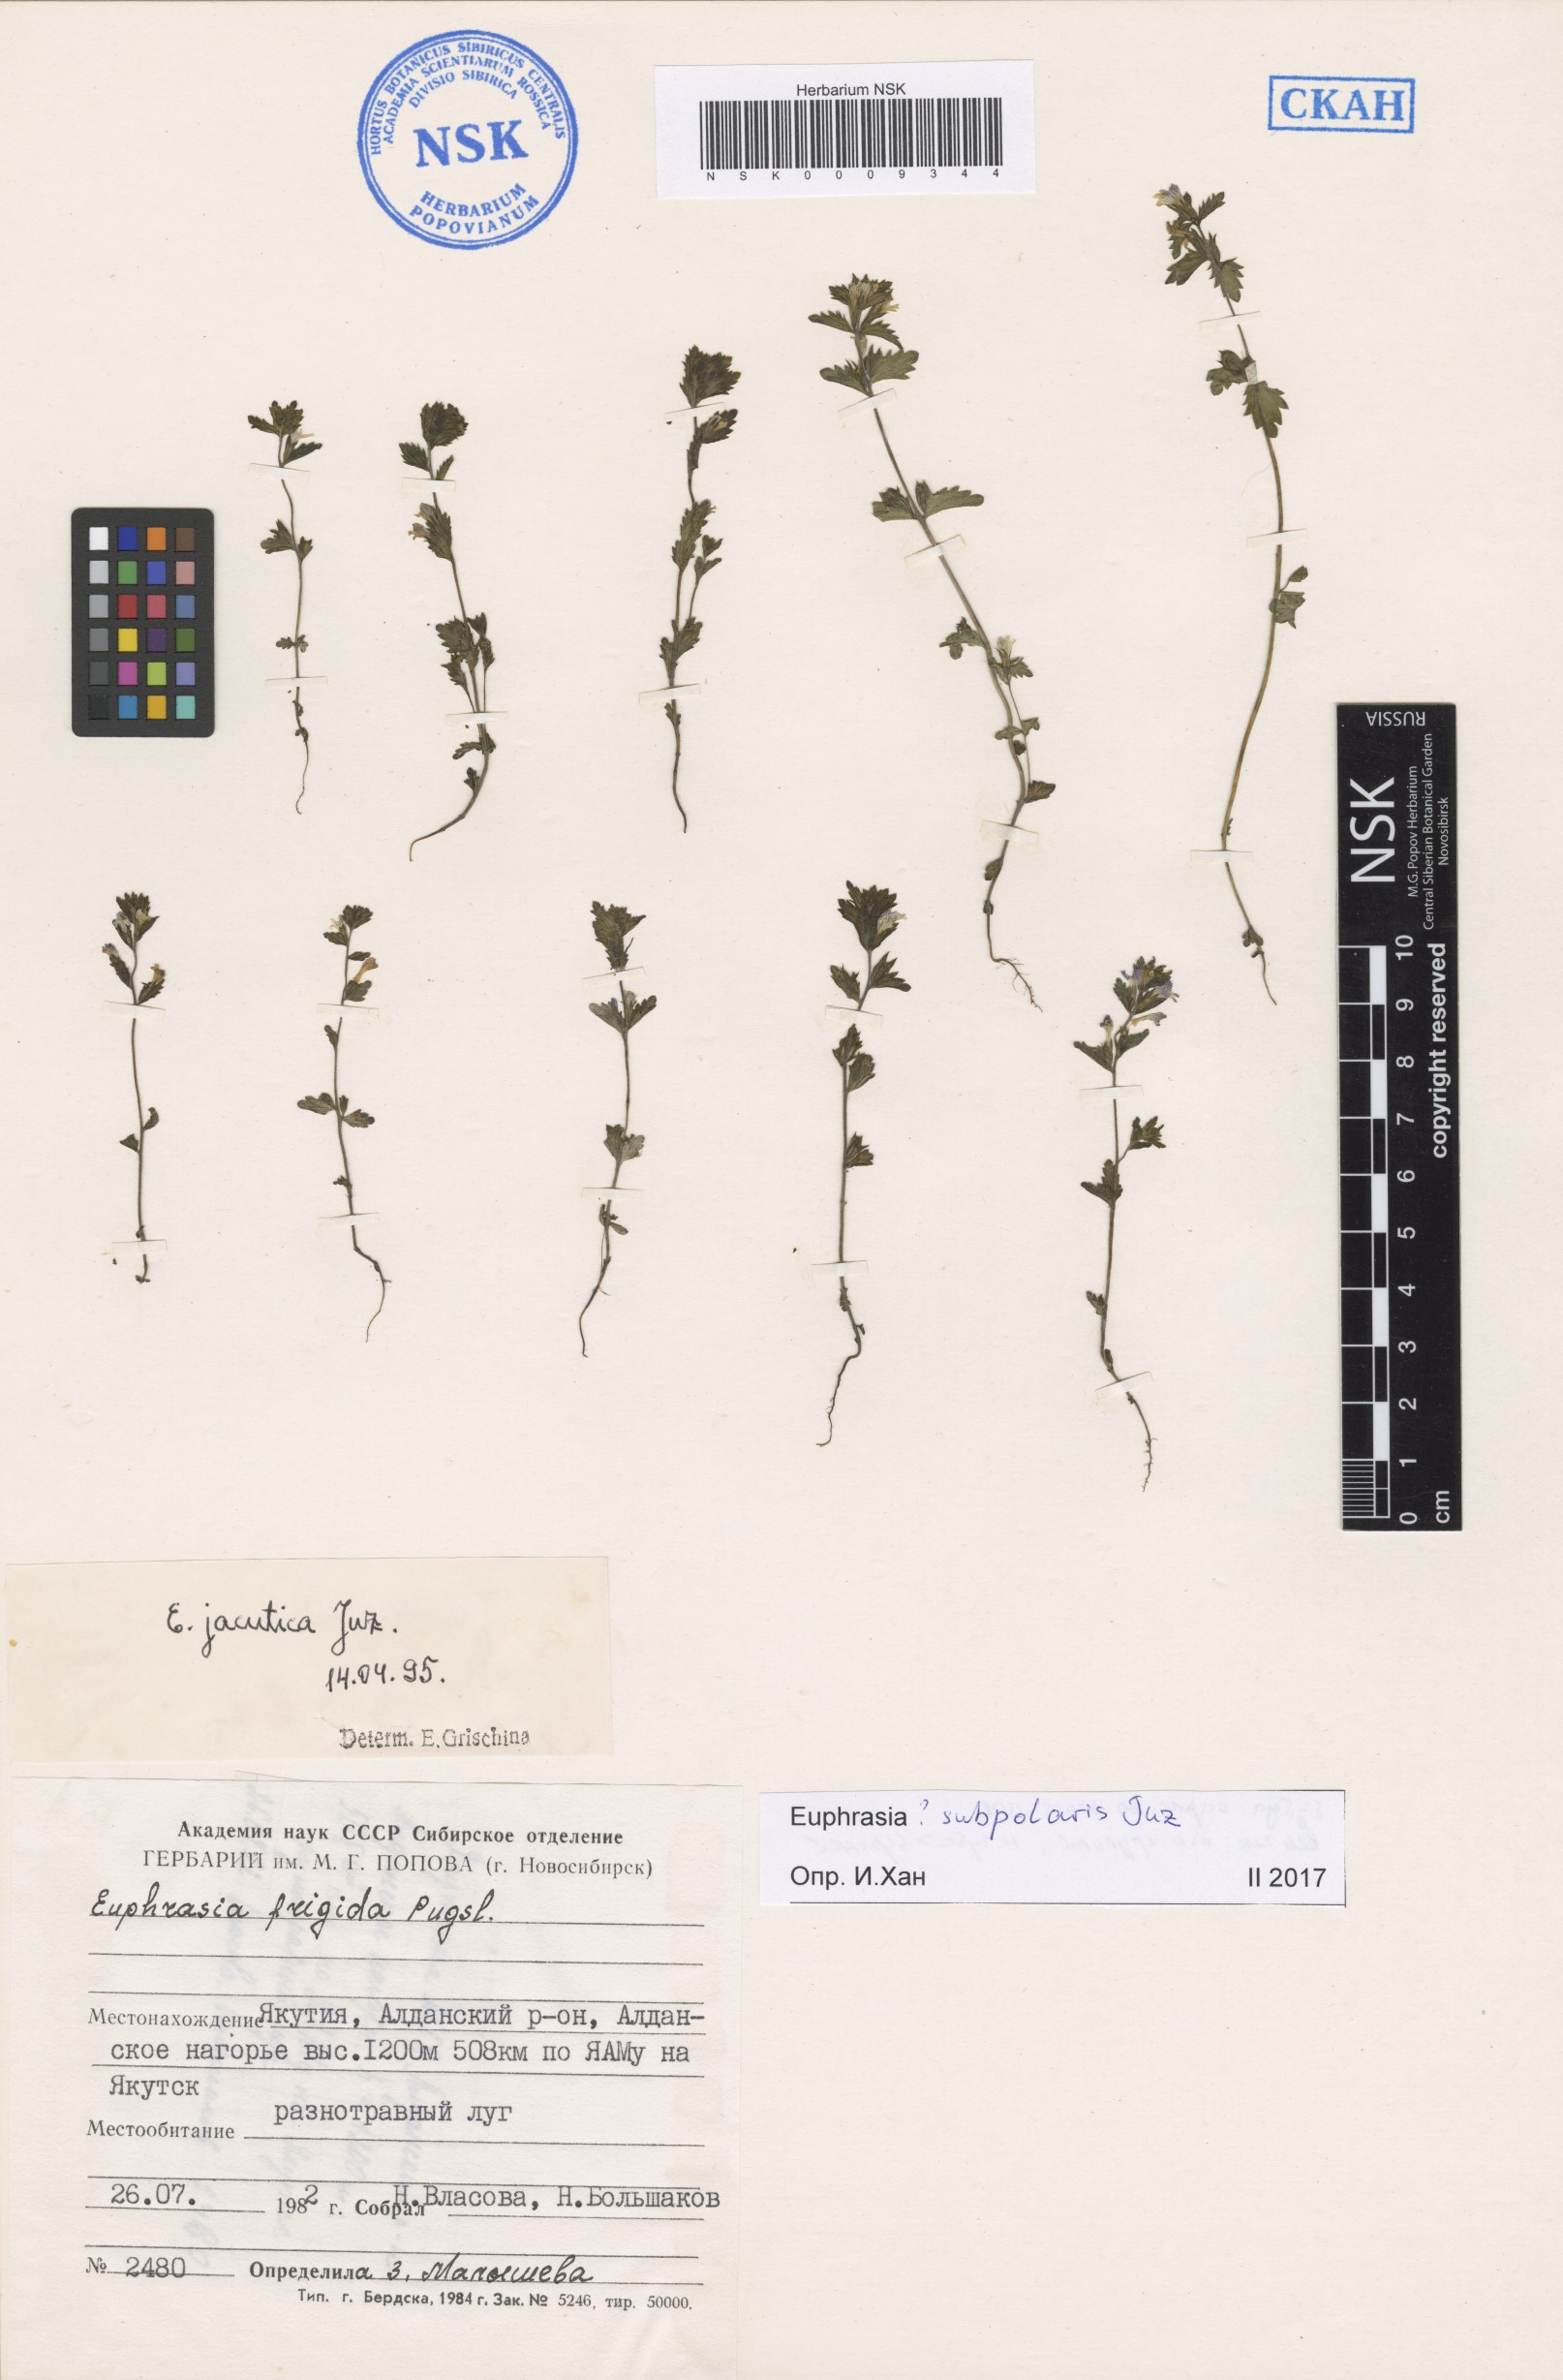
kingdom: Plantae
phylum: Tracheophyta
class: Magnoliopsida
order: Lamiales
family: Orobanchaceae
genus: Euphrasia
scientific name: Euphrasia hyperborea
